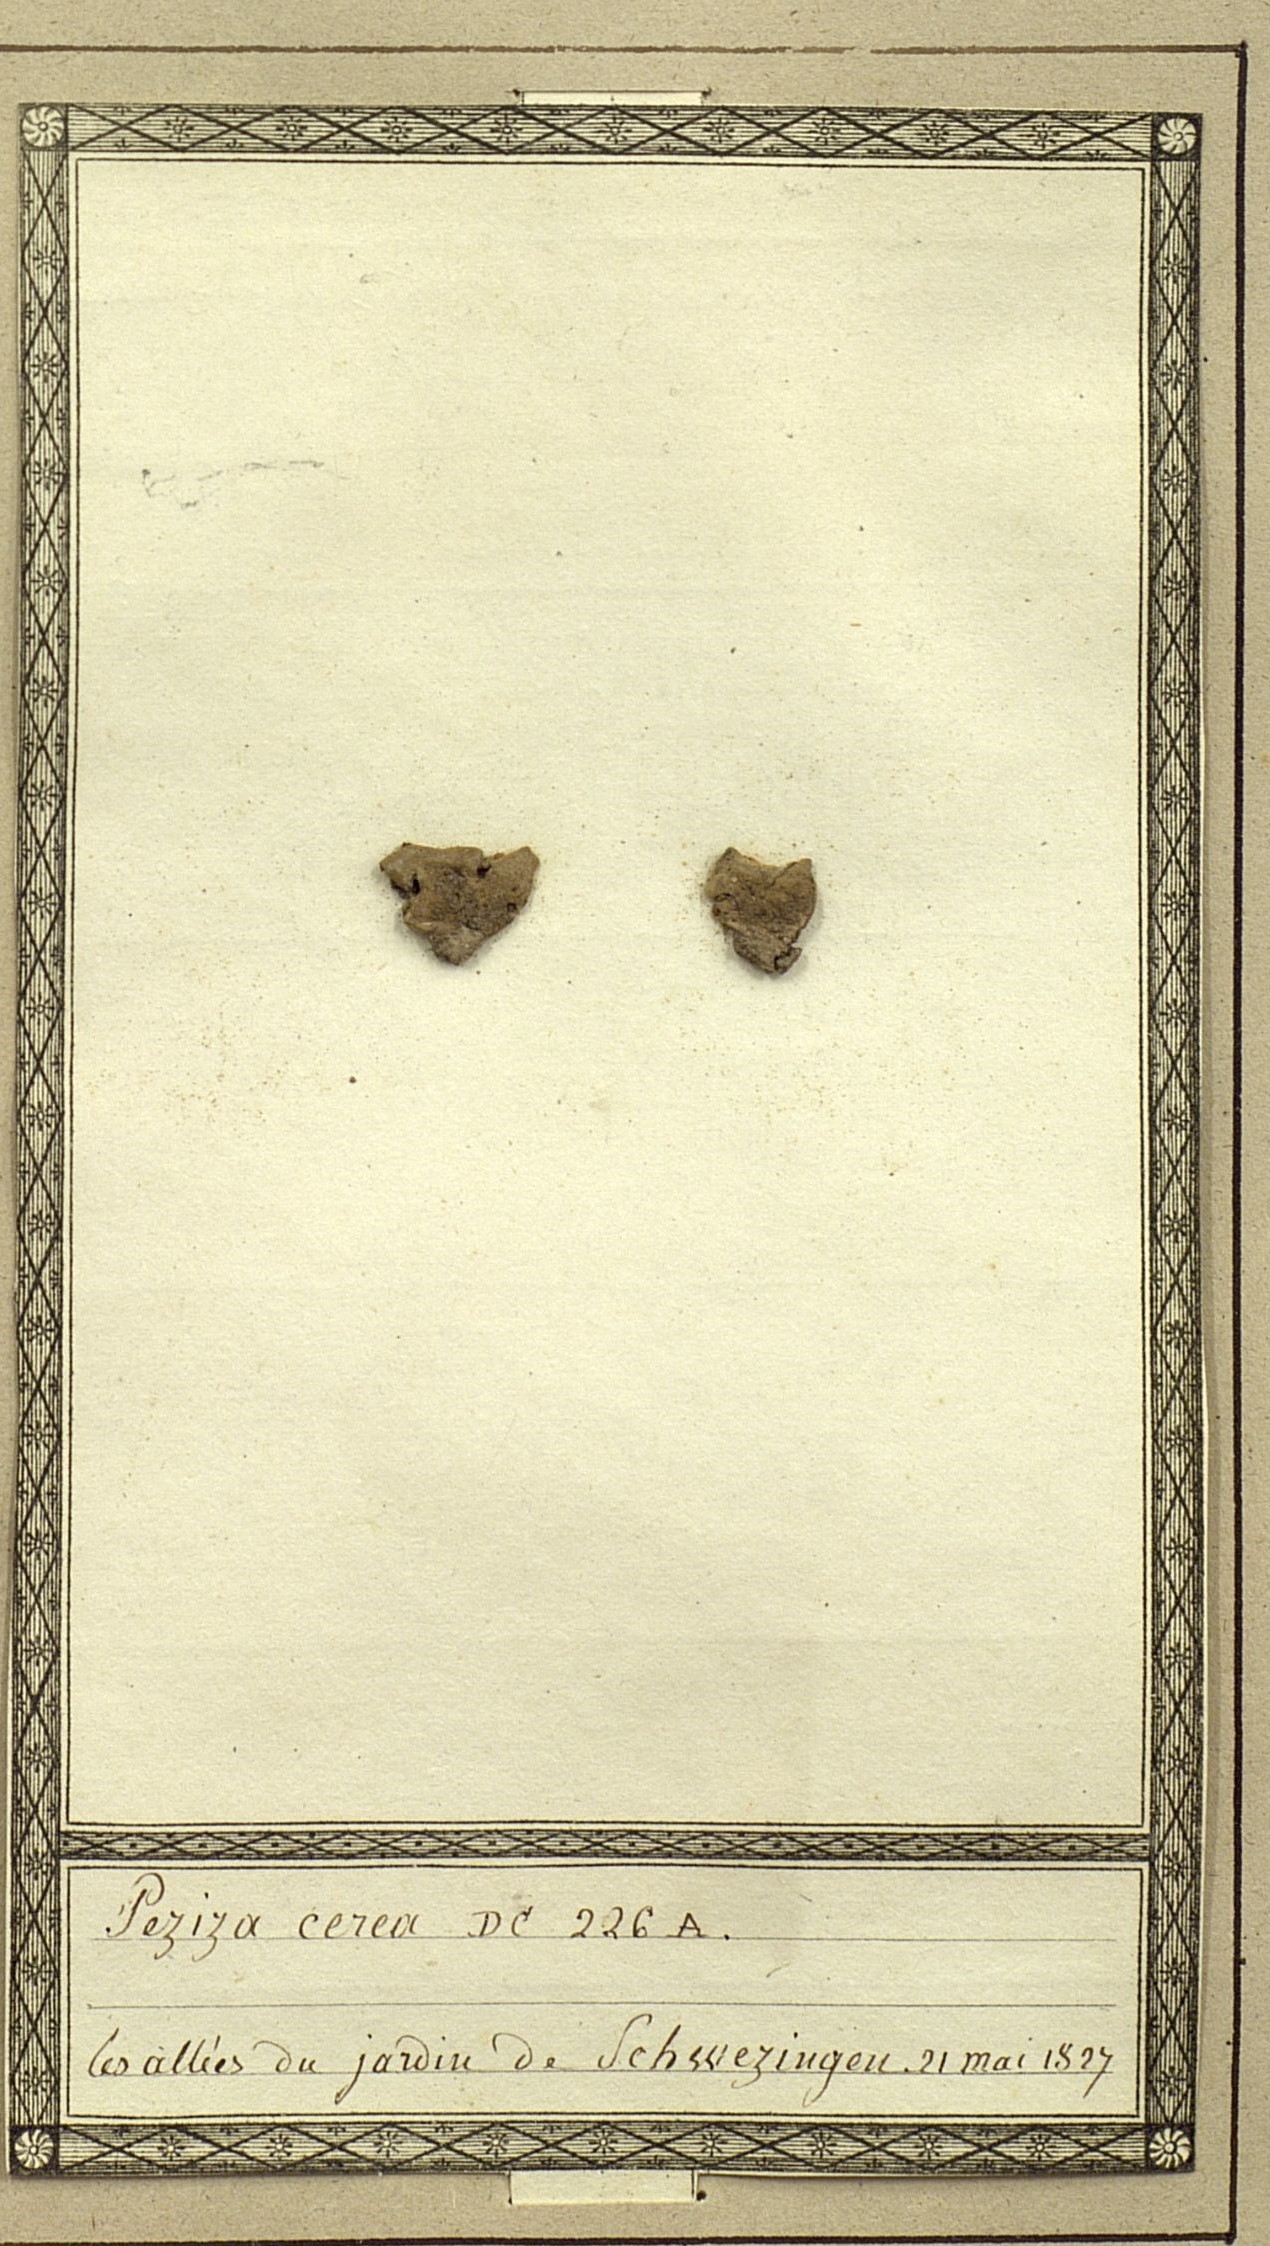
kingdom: Fungi
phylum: Ascomycota
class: Pezizomycetes
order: Pezizales
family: Pezizaceae
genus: Peziza
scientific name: Peziza cerea
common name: Cellar cup
